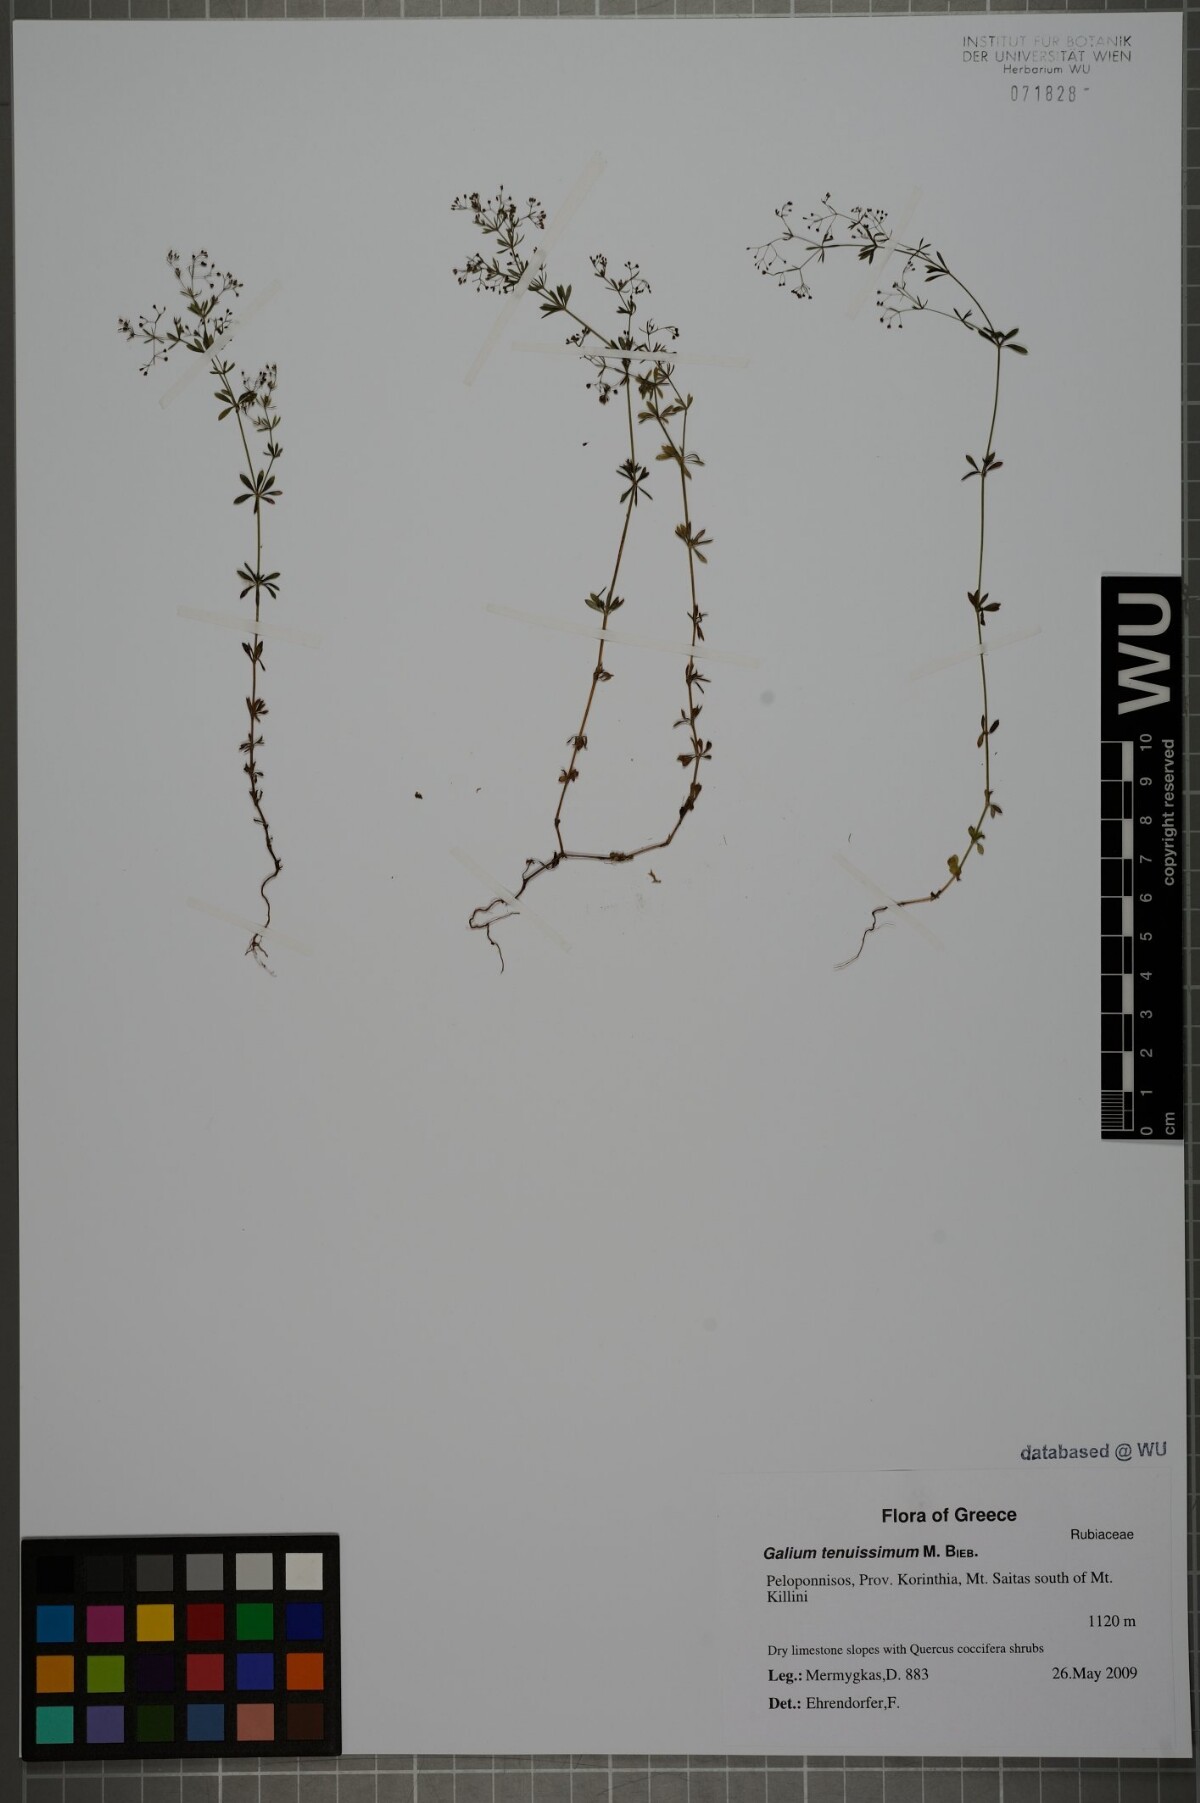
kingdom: Plantae
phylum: Tracheophyta
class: Magnoliopsida
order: Gentianales
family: Rubiaceae
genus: Galium
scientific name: Galium tenuissimum
